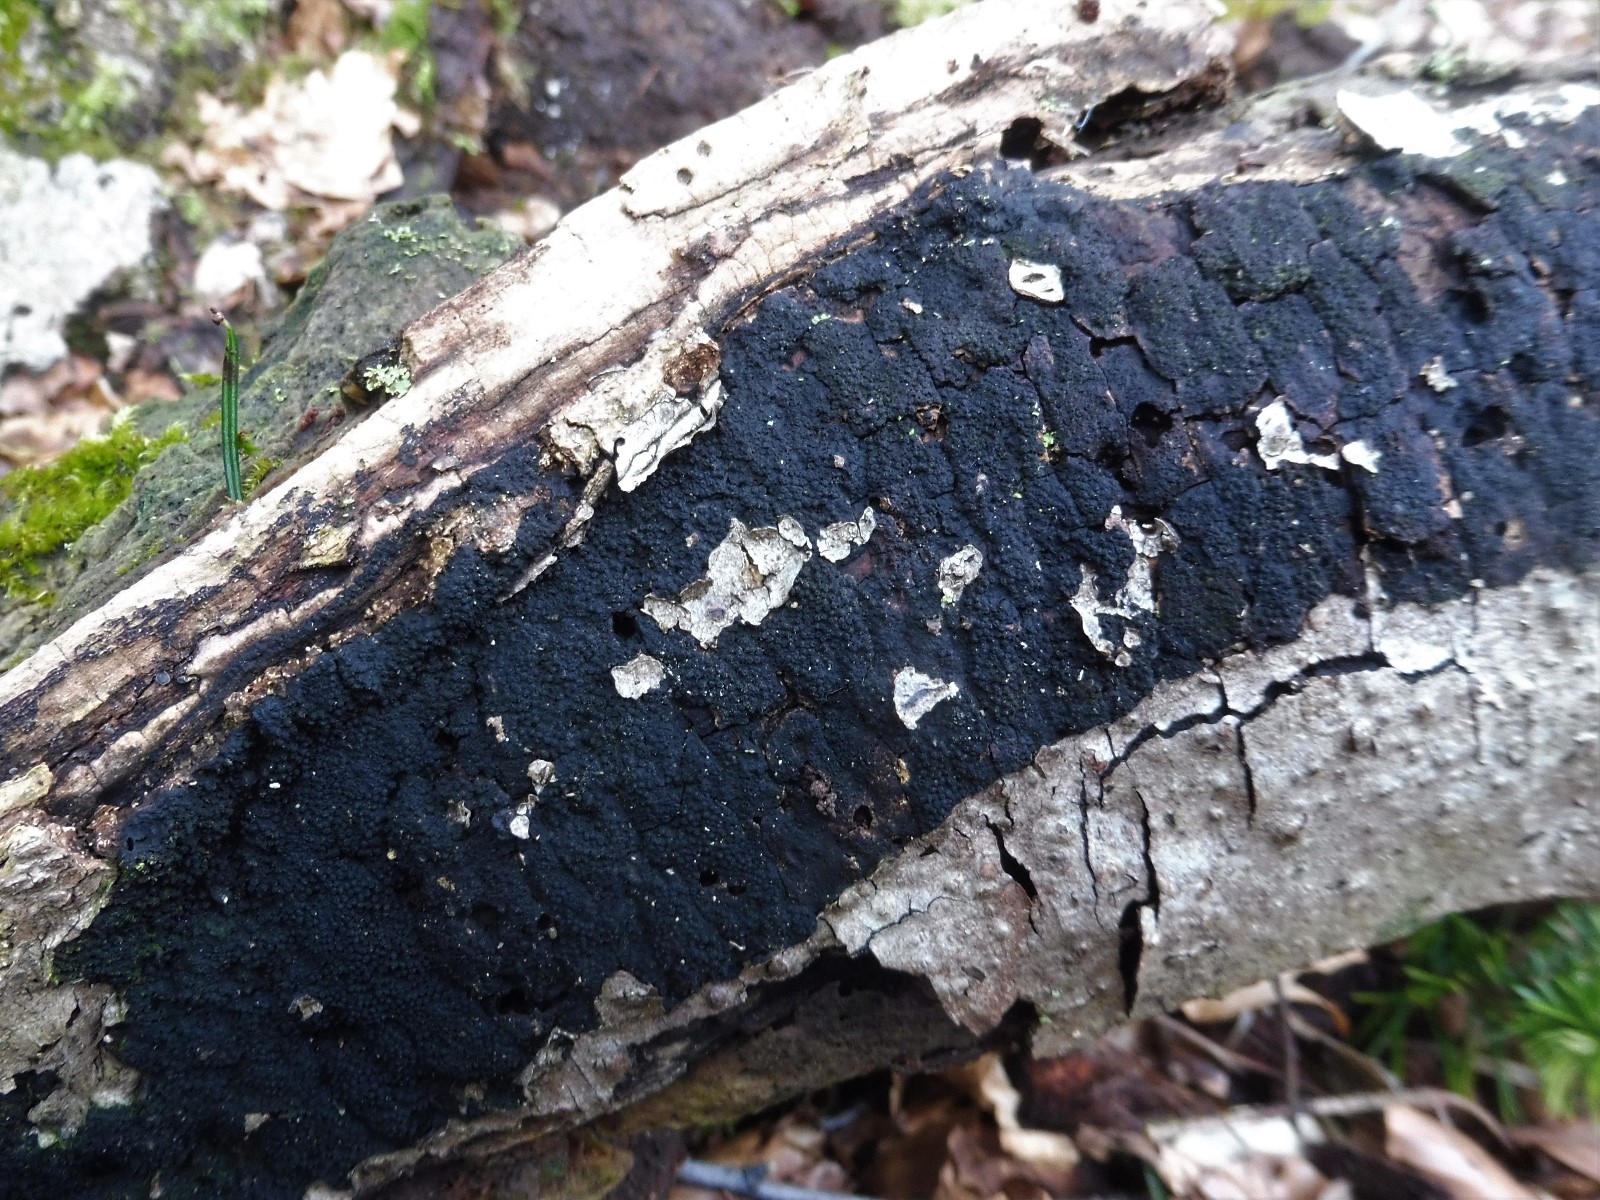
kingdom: Fungi
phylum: Ascomycota
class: Sordariomycetes
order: Xylariales
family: Diatrypaceae
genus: Eutypa
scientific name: Eutypa spinosa
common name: grov kulskorpe
